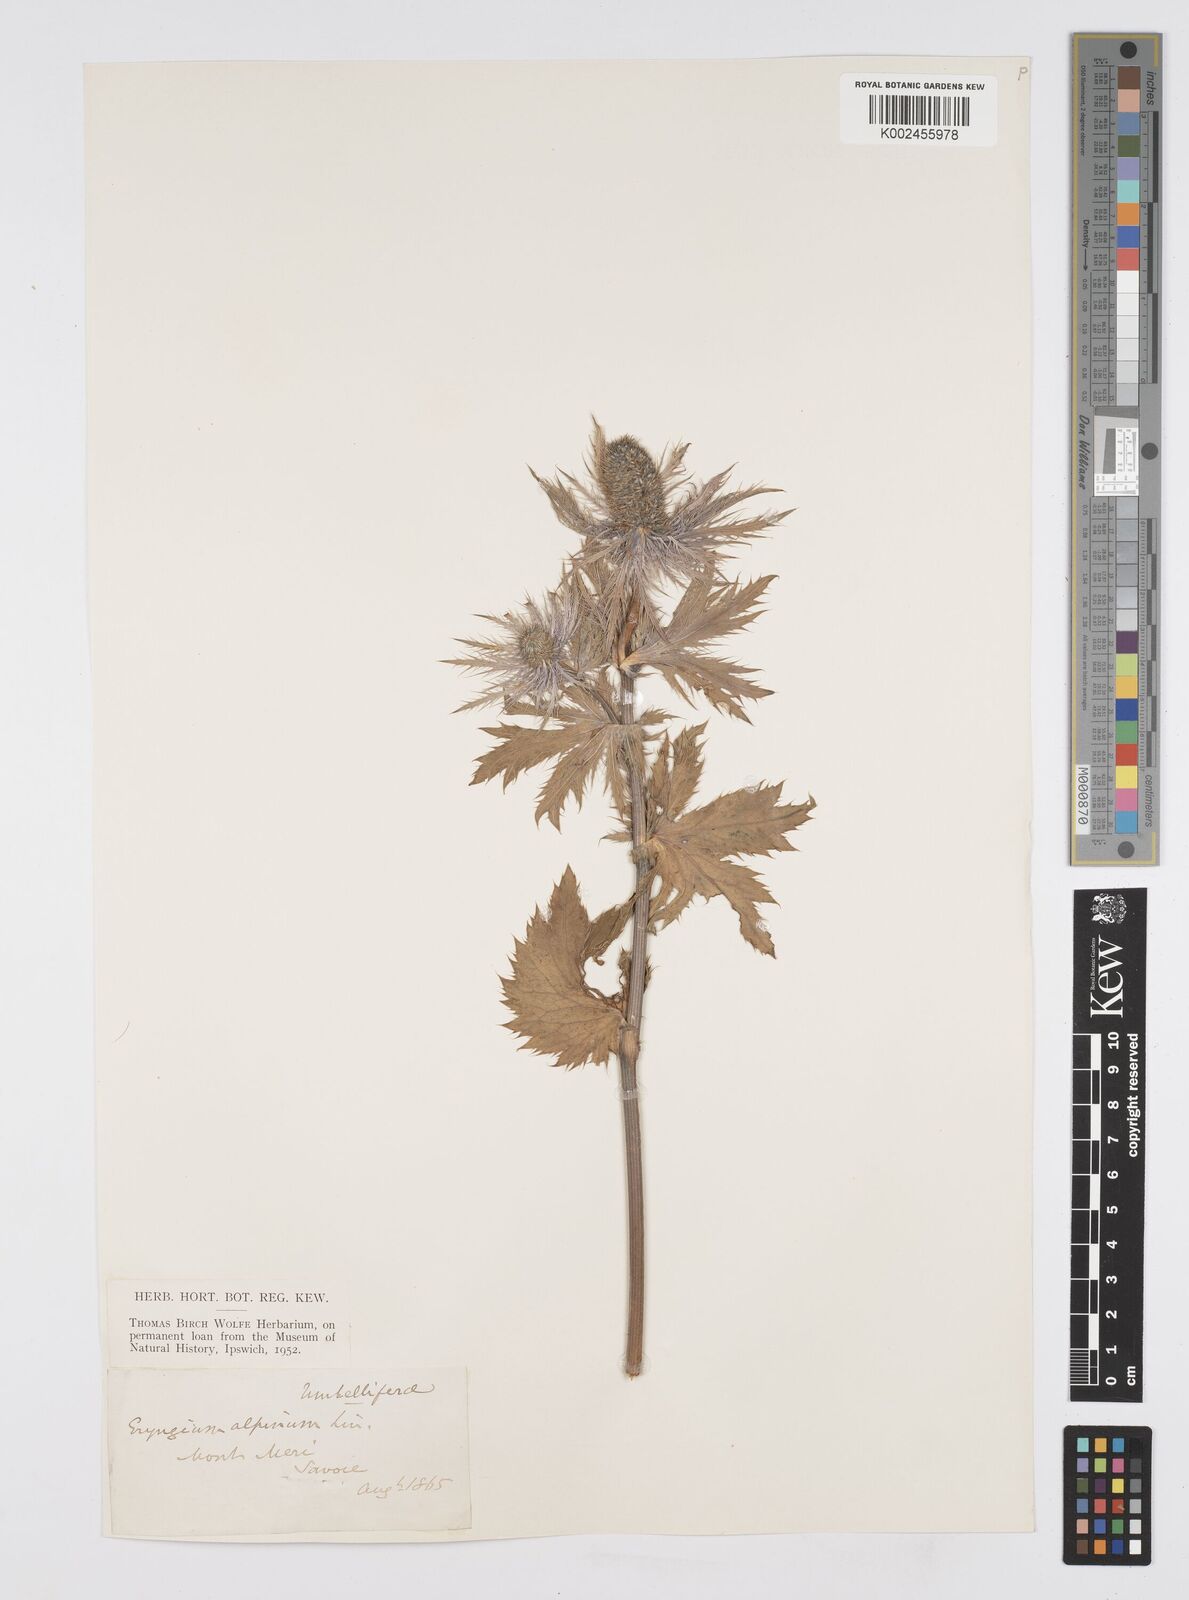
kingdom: Plantae
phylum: Tracheophyta
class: Magnoliopsida
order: Apiales
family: Apiaceae
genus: Eryngium
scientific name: Eryngium alpinum
